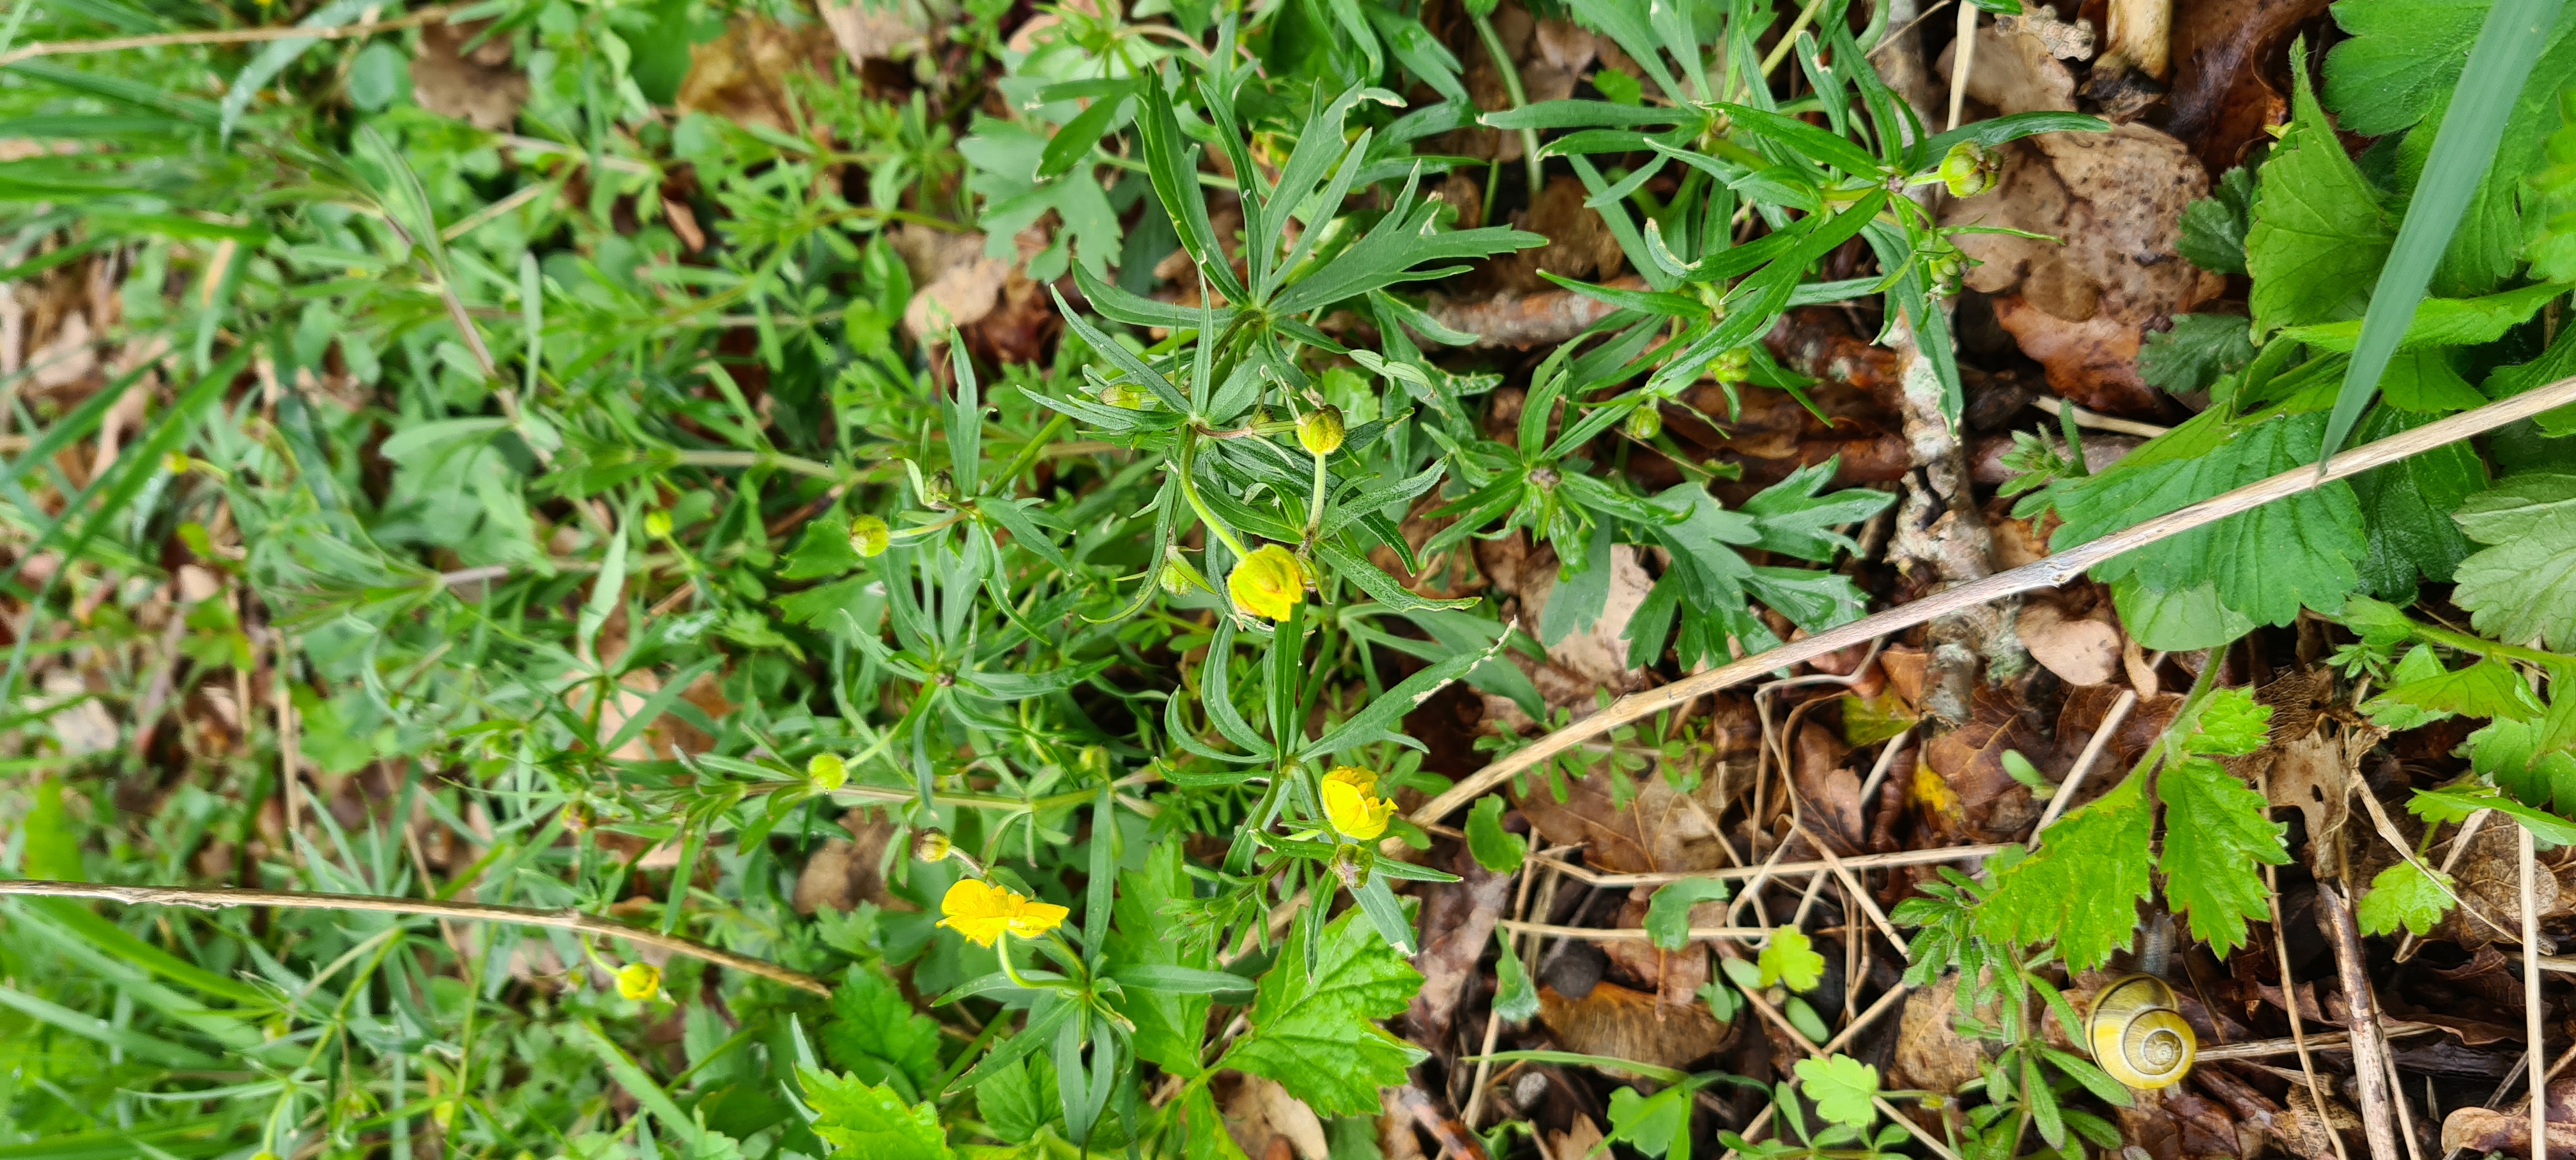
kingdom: Plantae
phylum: Tracheophyta
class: Magnoliopsida
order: Ranunculales
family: Ranunculaceae
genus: Ranunculus
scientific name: Ranunculus auricomus
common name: Nyrebladet ranunkel
